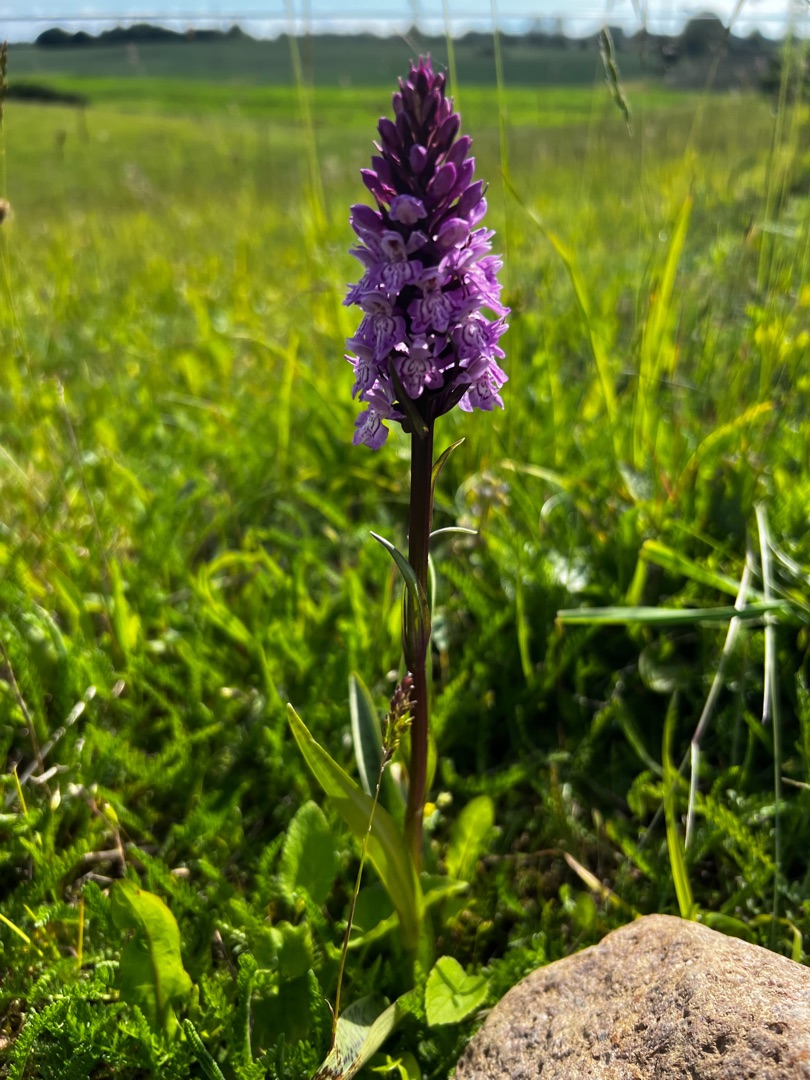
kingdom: Plantae
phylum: Tracheophyta
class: Liliopsida
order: Asparagales
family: Orchidaceae
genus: Dactylorhiza
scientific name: Dactylorhiza maculata
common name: Skov-gøgeurt
